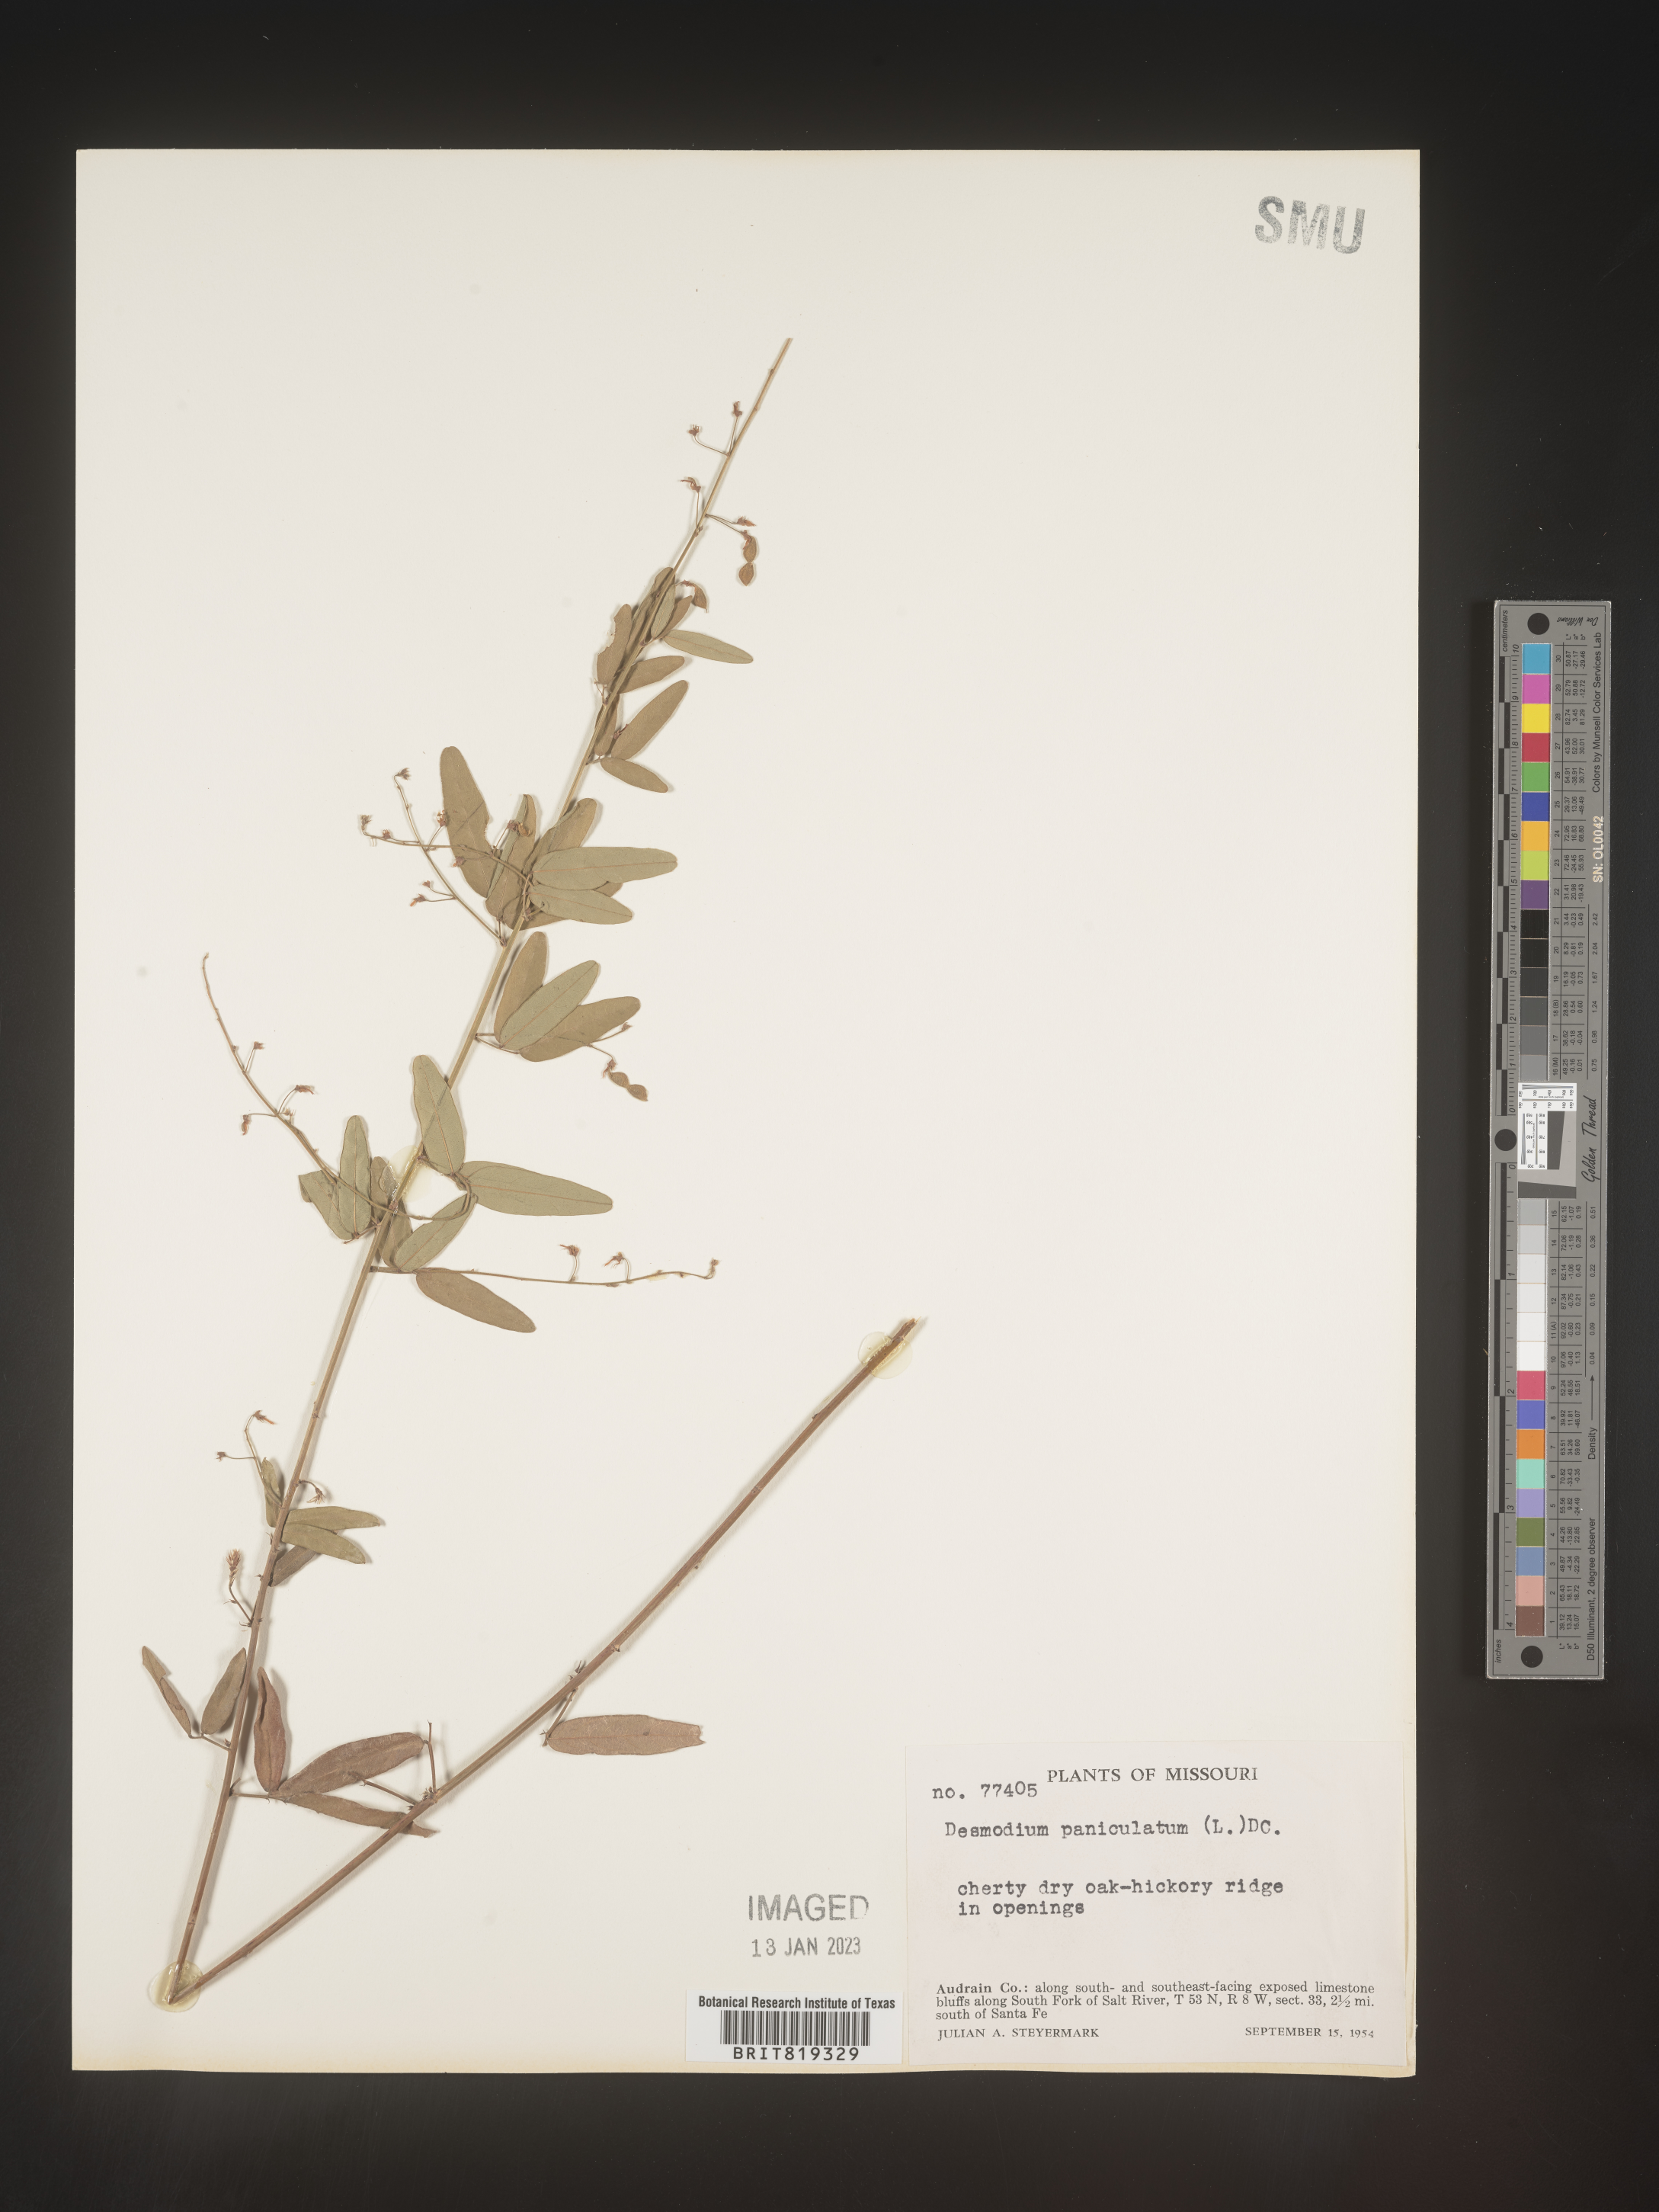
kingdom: Plantae
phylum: Tracheophyta
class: Magnoliopsida
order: Fabales
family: Fabaceae
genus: Desmodium
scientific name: Desmodium paniculatum
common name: Panicled tick-clover
